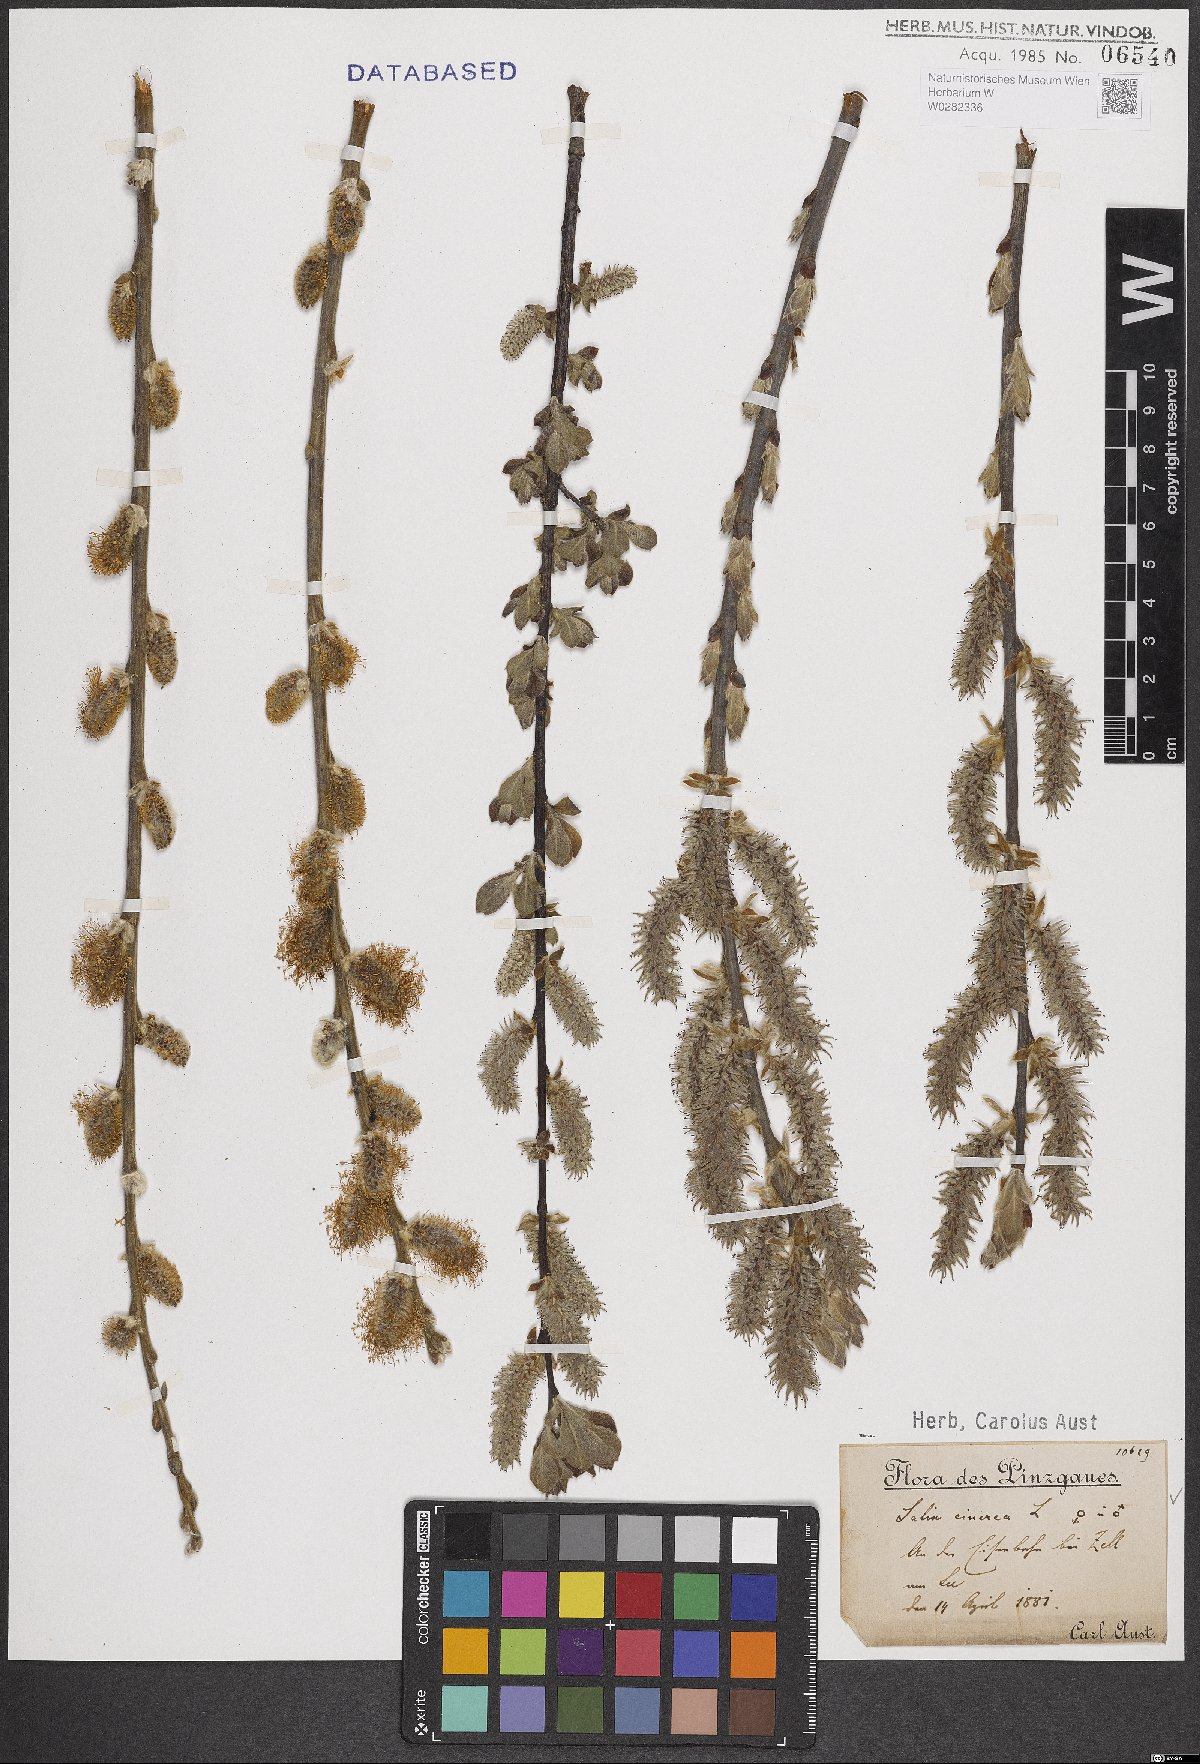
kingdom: Plantae
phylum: Tracheophyta
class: Magnoliopsida
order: Malpighiales
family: Salicaceae
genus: Salix
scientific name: Salix cinerea
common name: Common sallow
